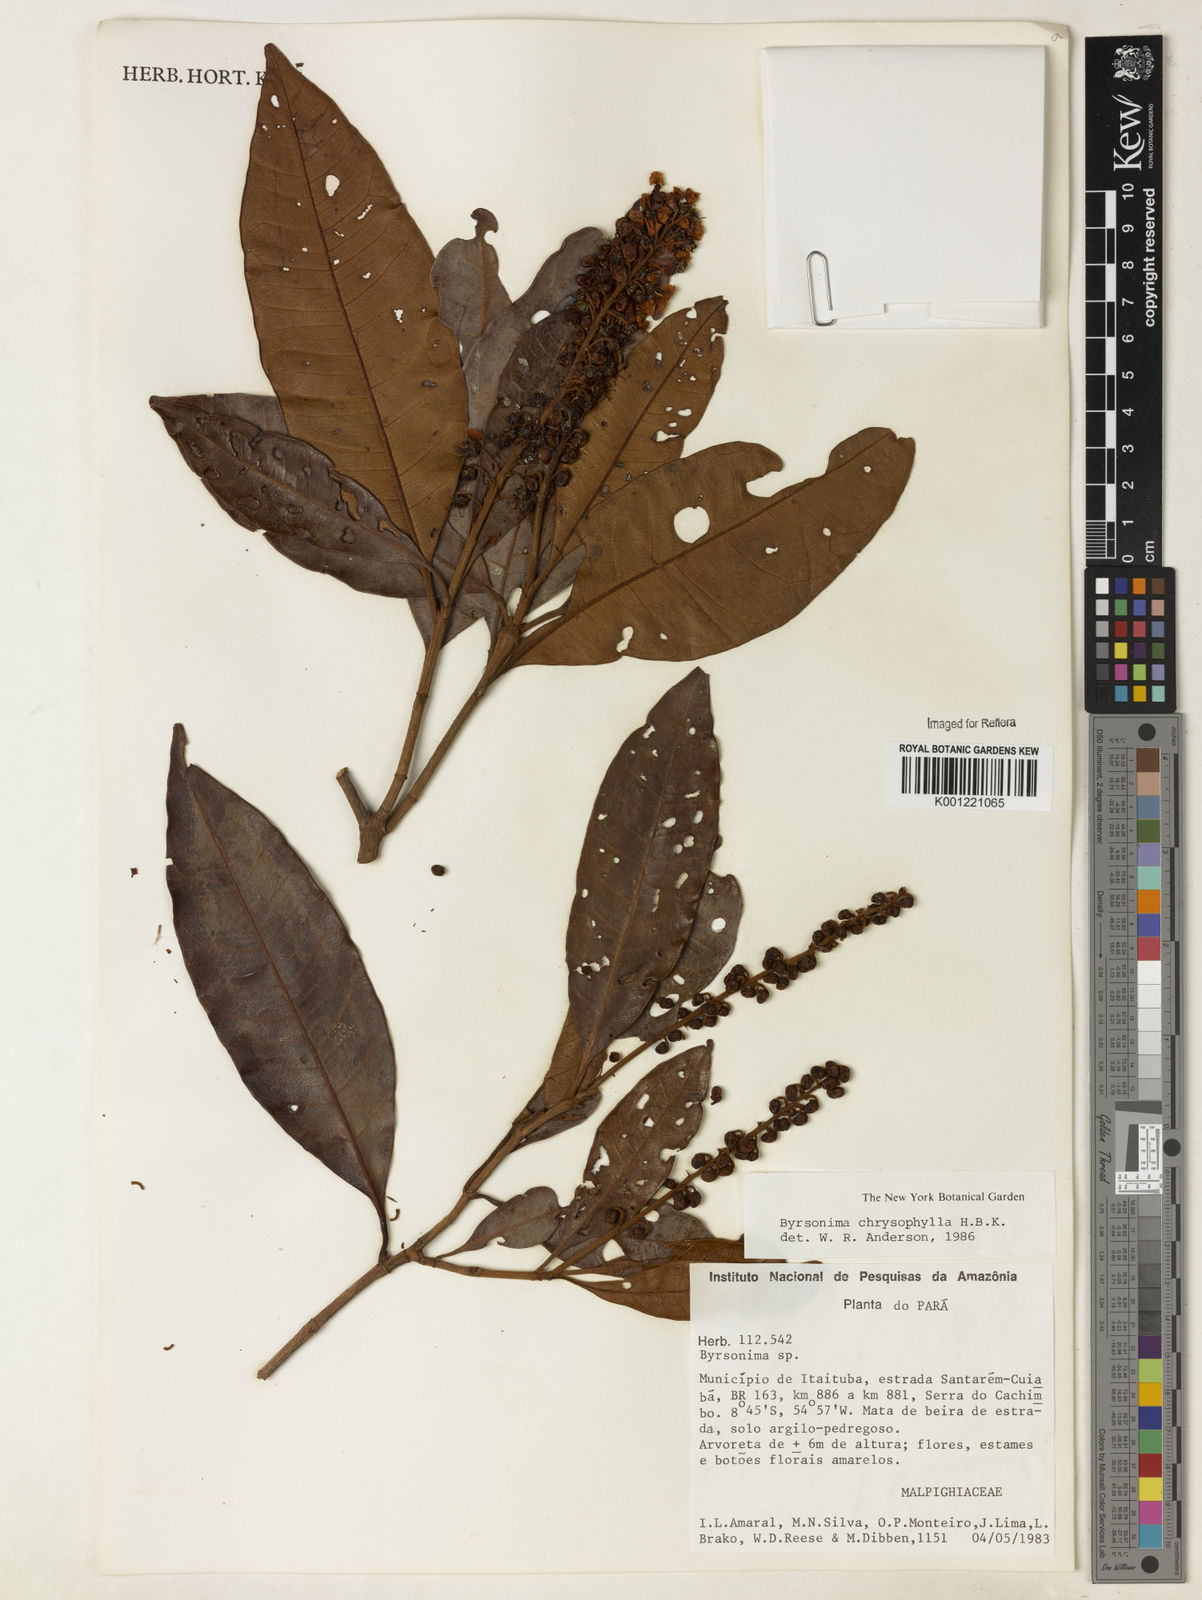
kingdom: Plantae
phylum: Tracheophyta
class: Magnoliopsida
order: Malpighiales
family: Malpighiaceae
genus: Byrsonima
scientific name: Byrsonima chrysophylla
